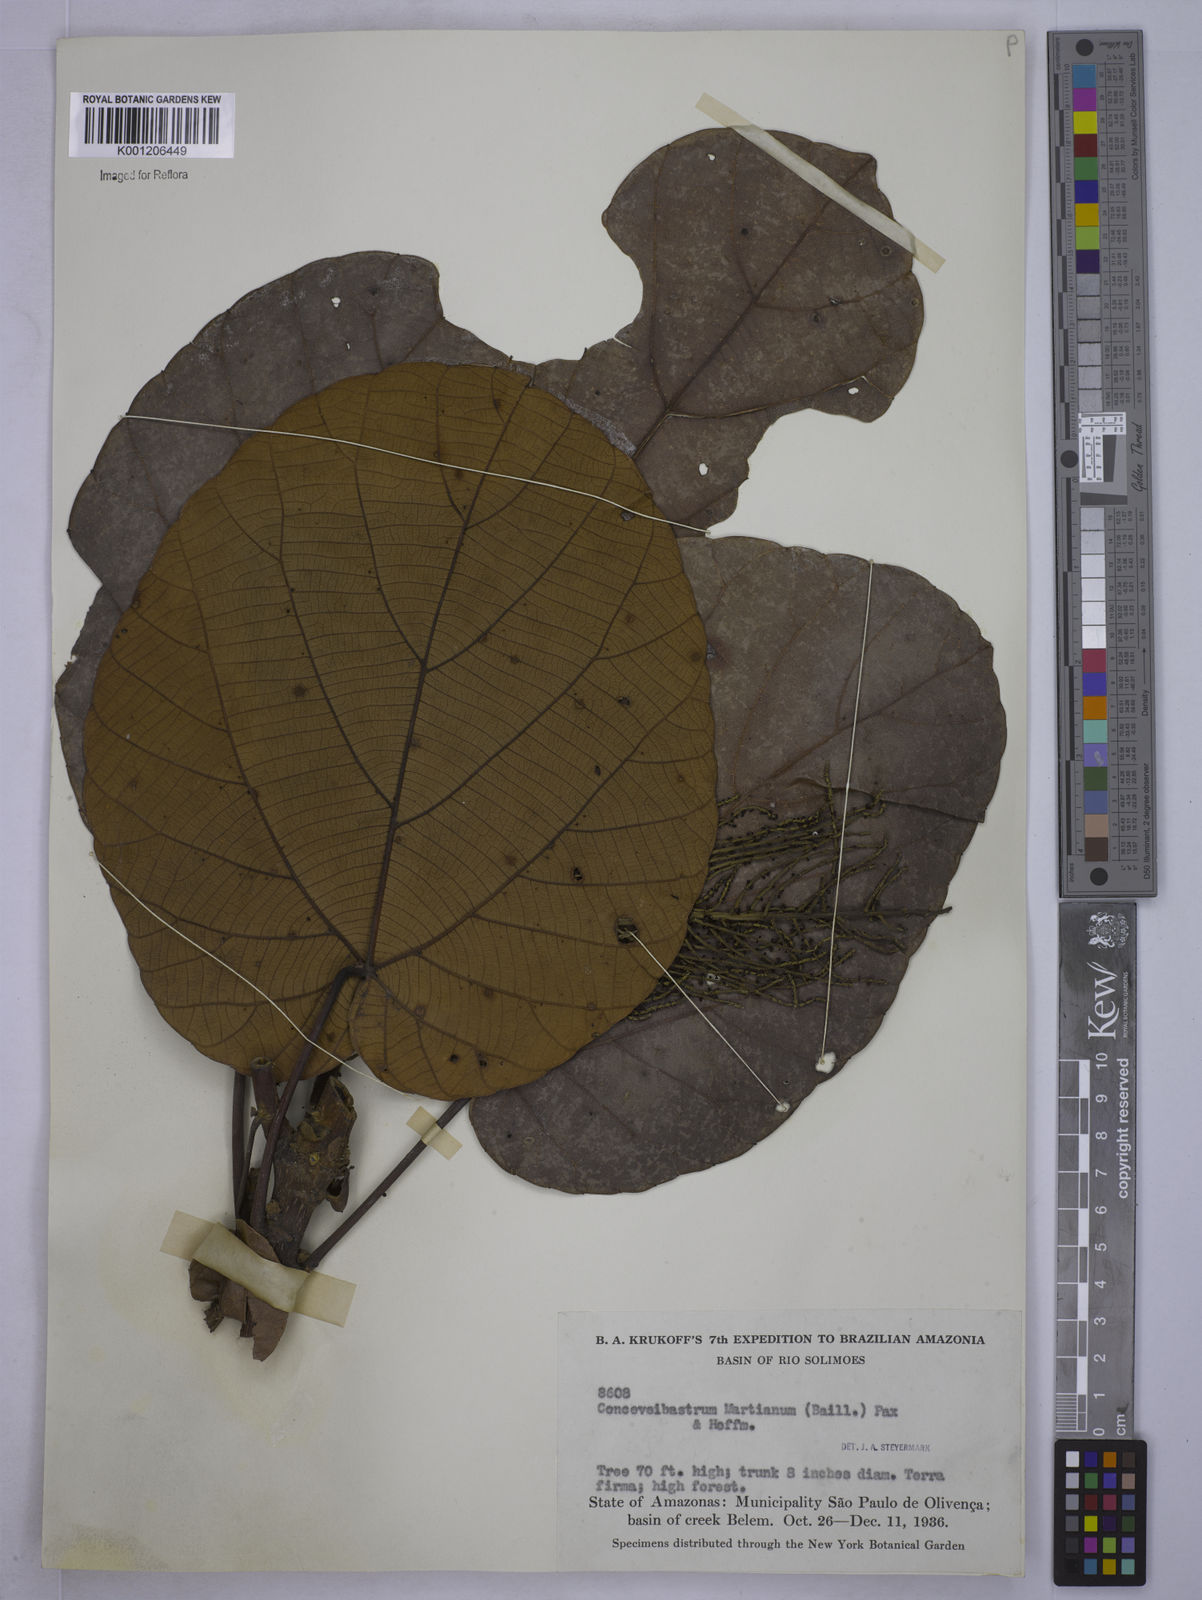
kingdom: Plantae
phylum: Tracheophyta
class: Magnoliopsida
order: Malpighiales
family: Euphorbiaceae
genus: Conceveiba
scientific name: Conceveiba martiana
